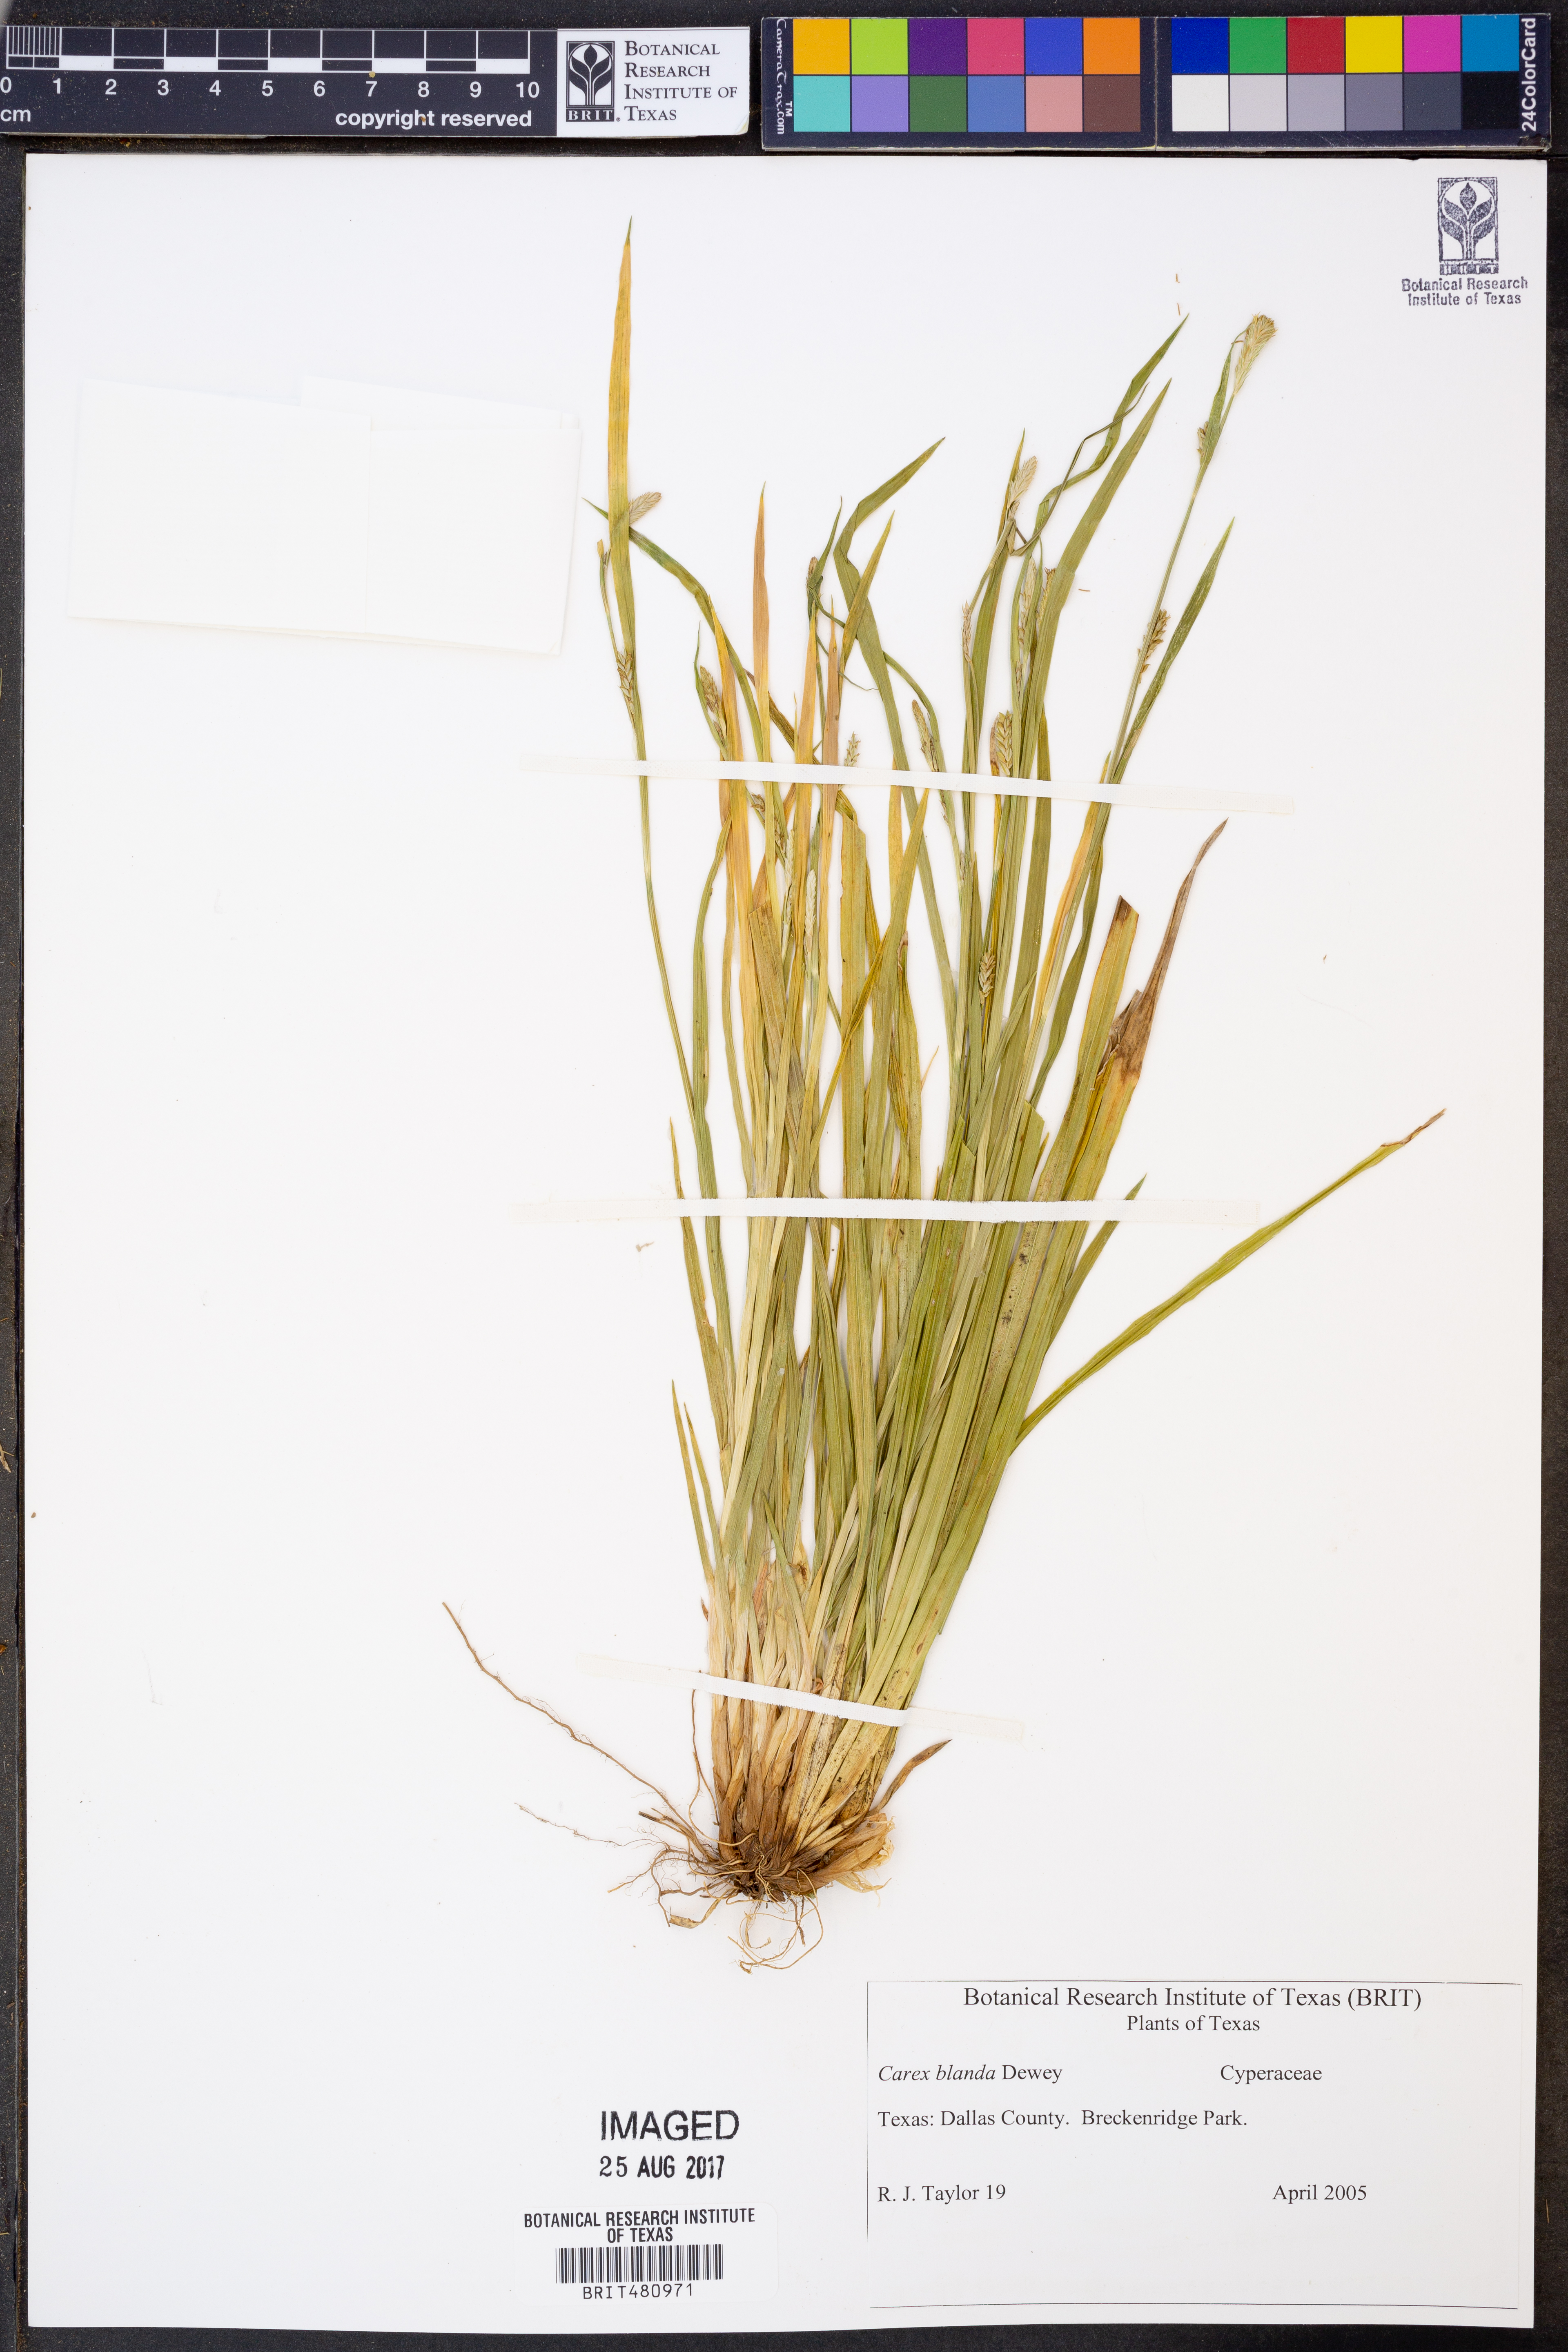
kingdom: Plantae
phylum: Tracheophyta
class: Liliopsida
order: Poales
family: Cyperaceae
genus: Carex
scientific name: Carex blanda
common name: Bland sedge
